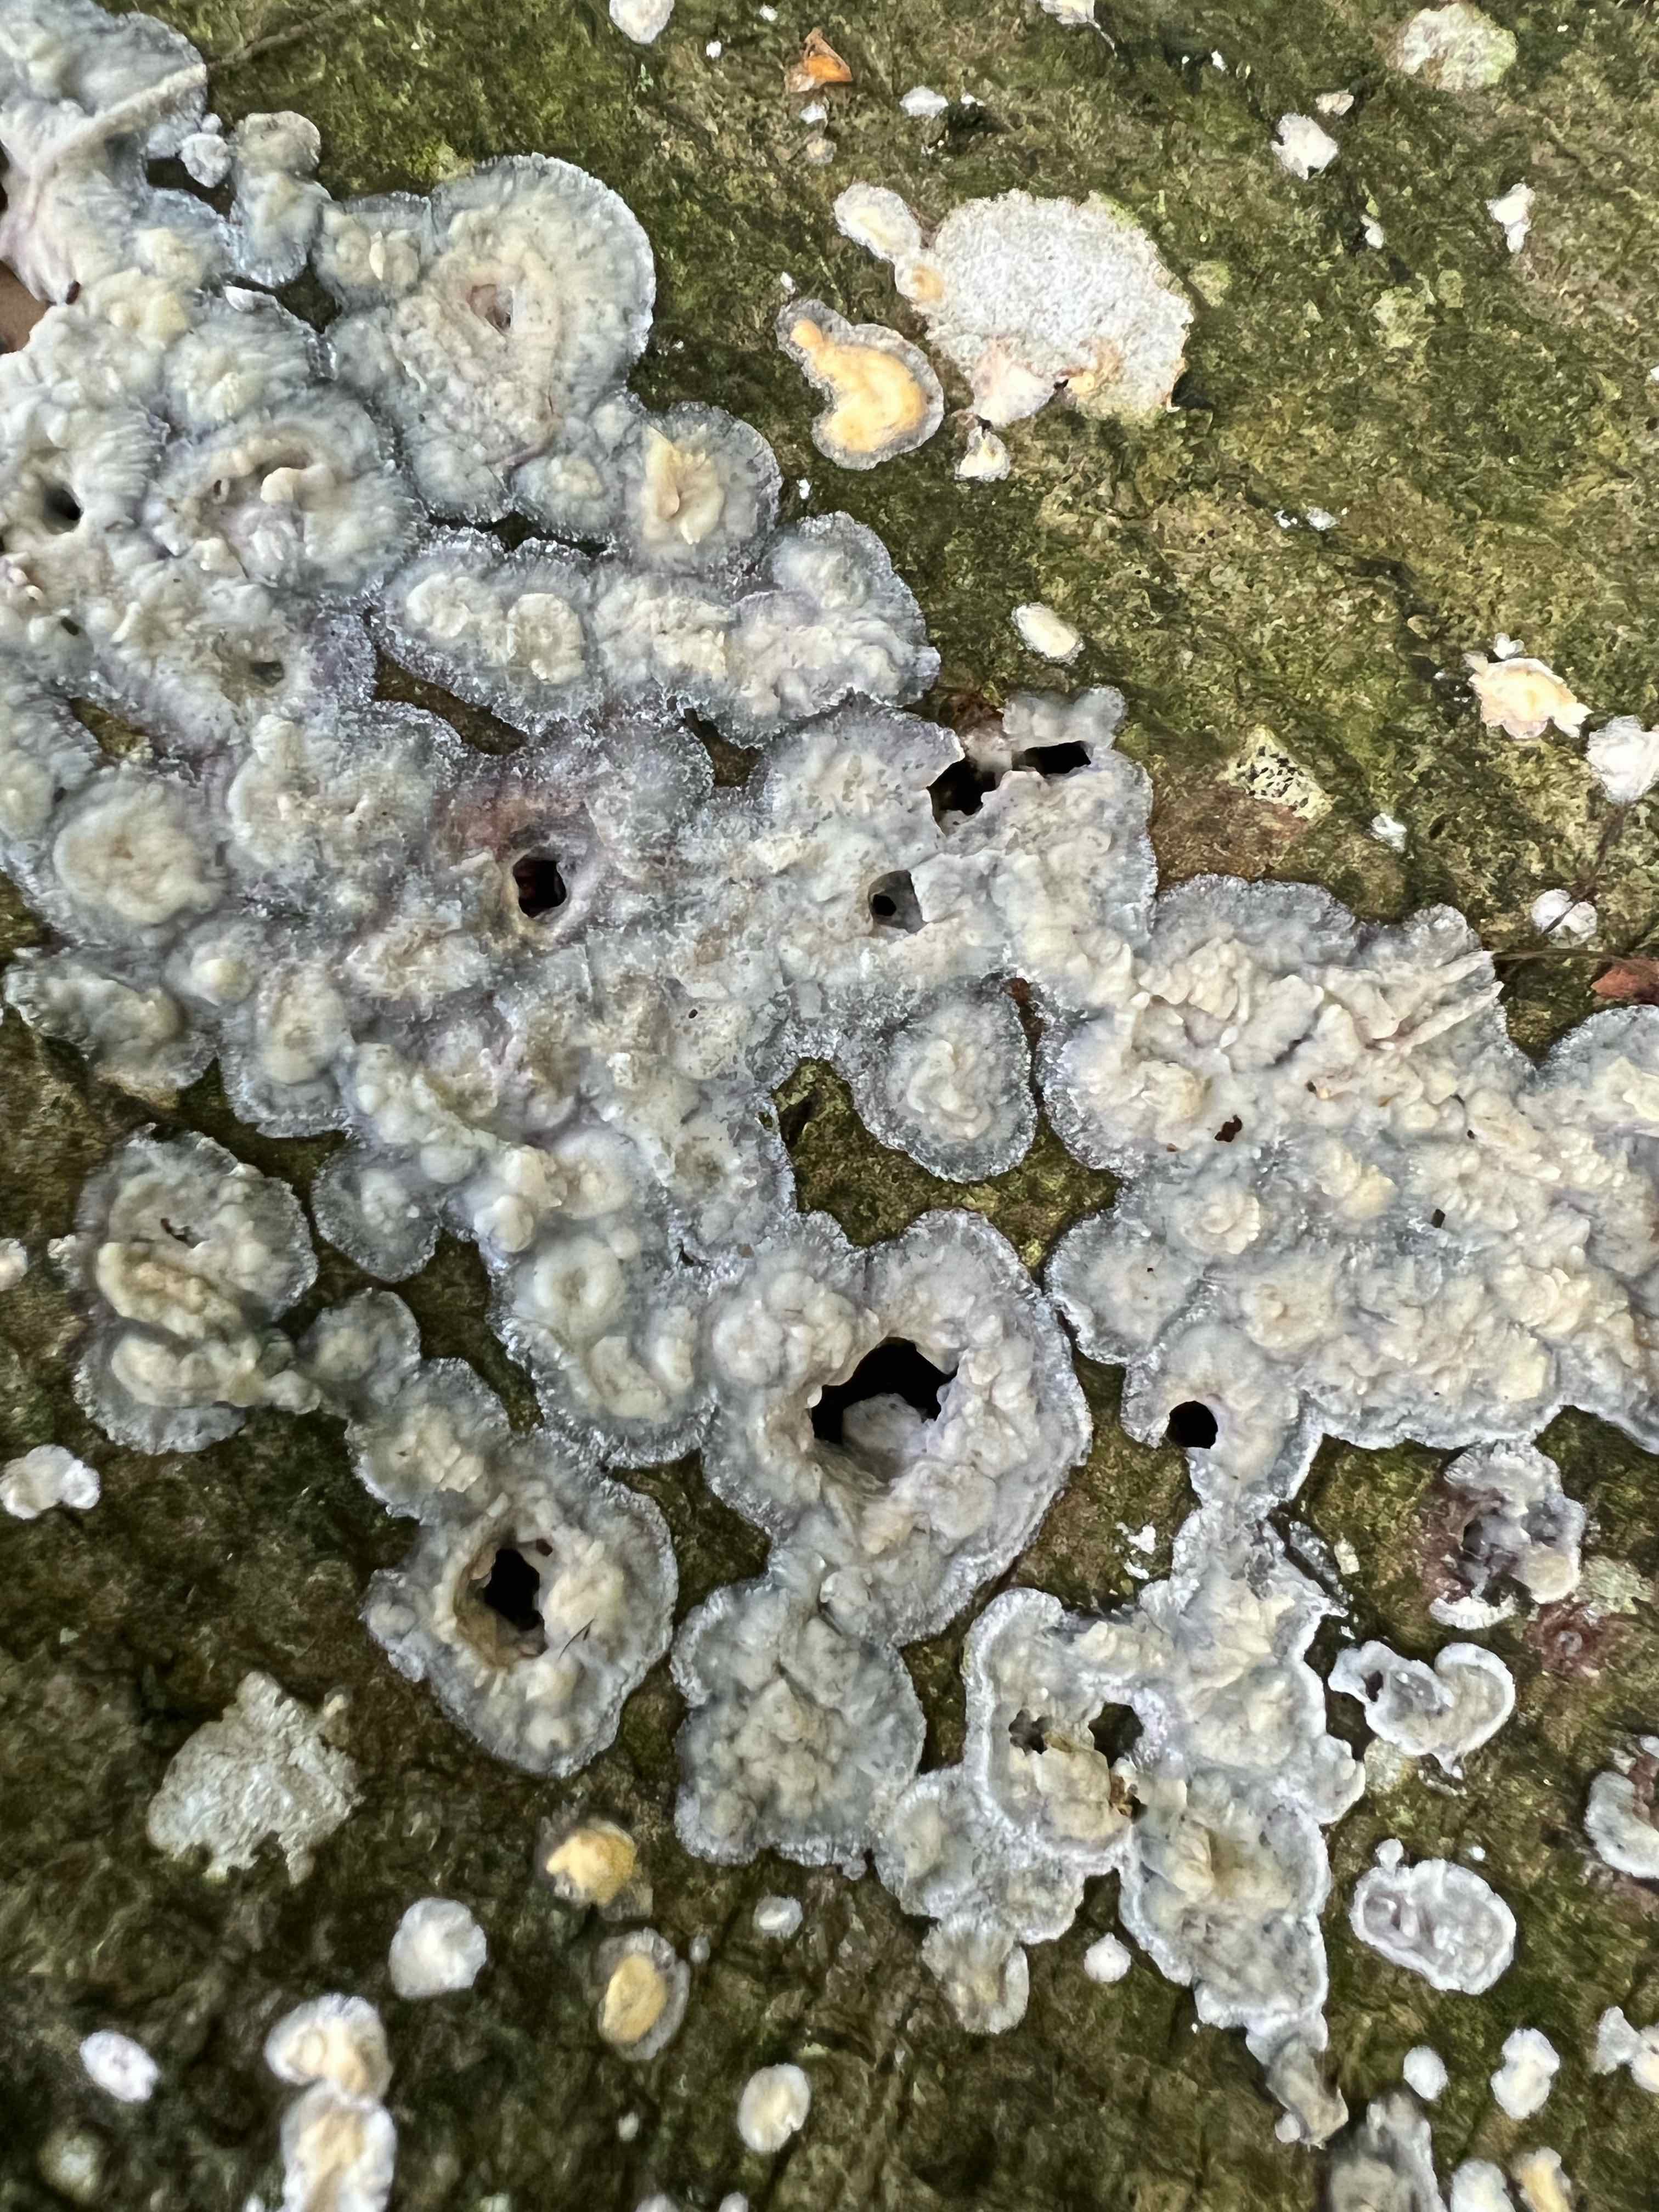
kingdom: Fungi
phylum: Basidiomycota
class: Agaricomycetes
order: Corticiales
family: Corticiaceae
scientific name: Corticiaceae
